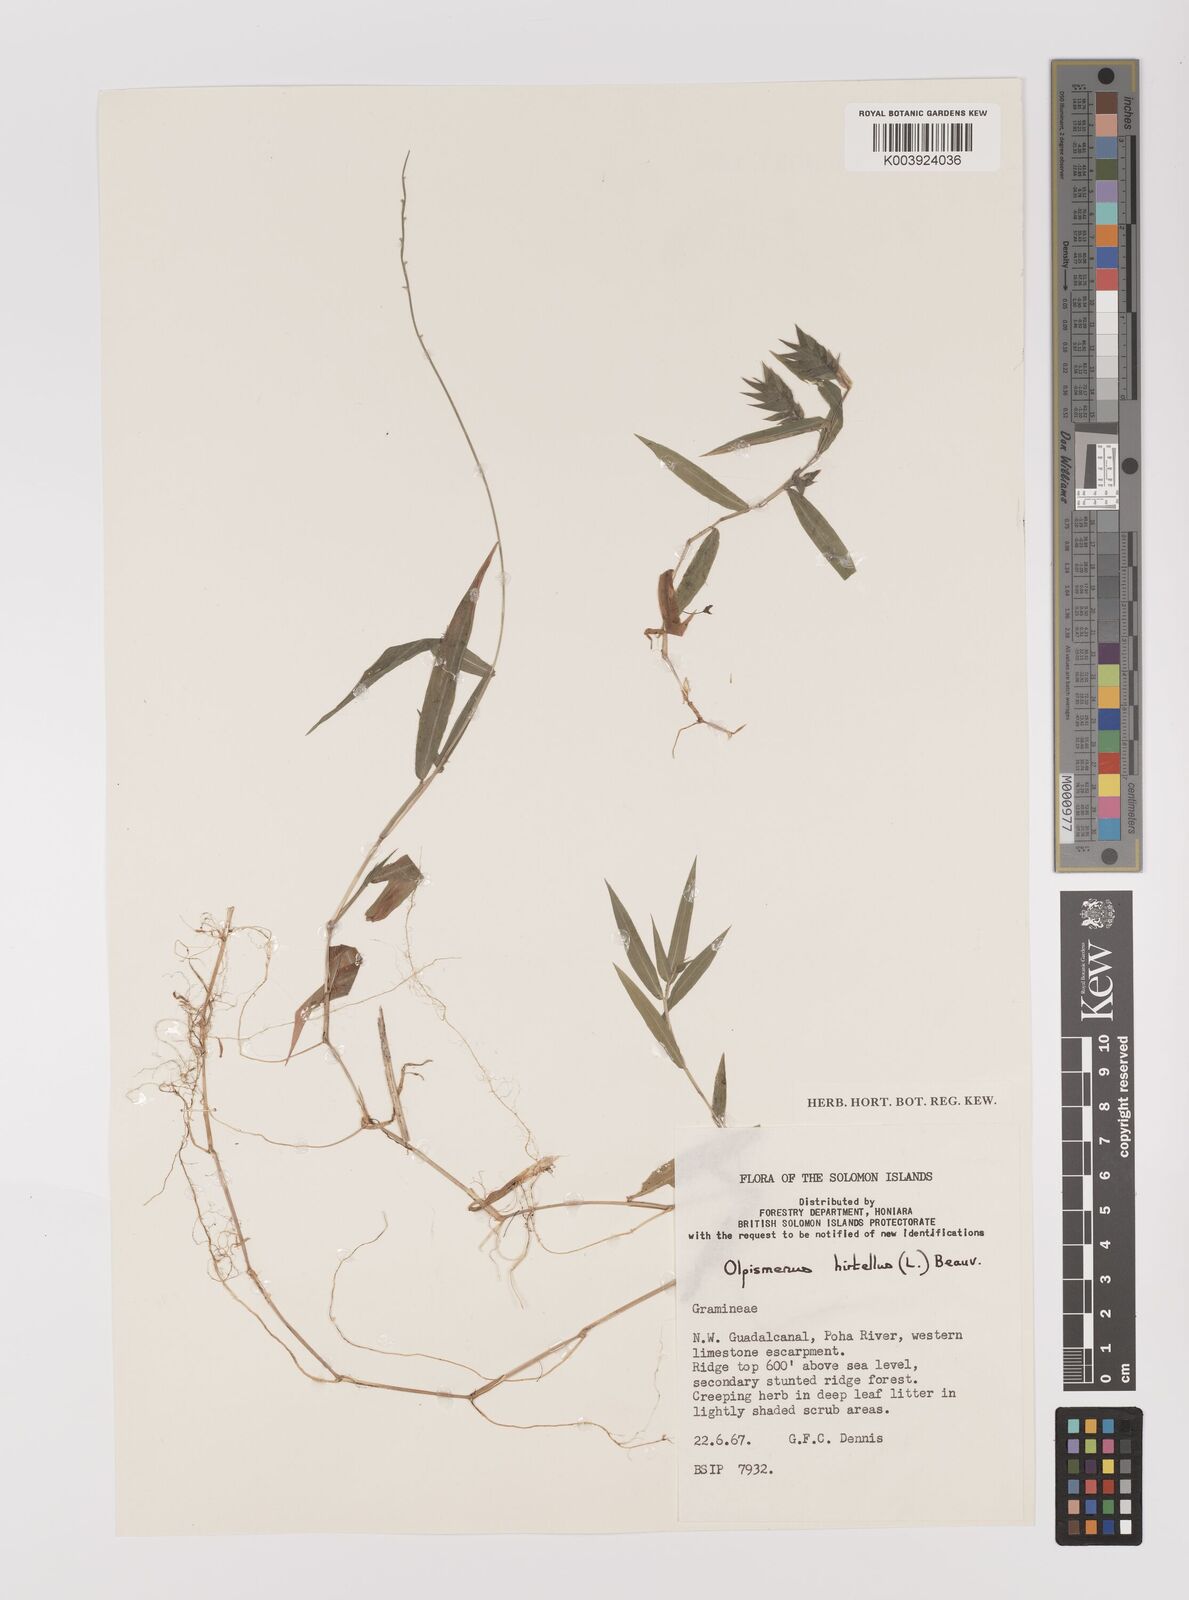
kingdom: Plantae
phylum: Tracheophyta
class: Liliopsida
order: Poales
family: Poaceae
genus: Oplismenus
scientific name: Oplismenus hirtellus
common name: Basketgrass
